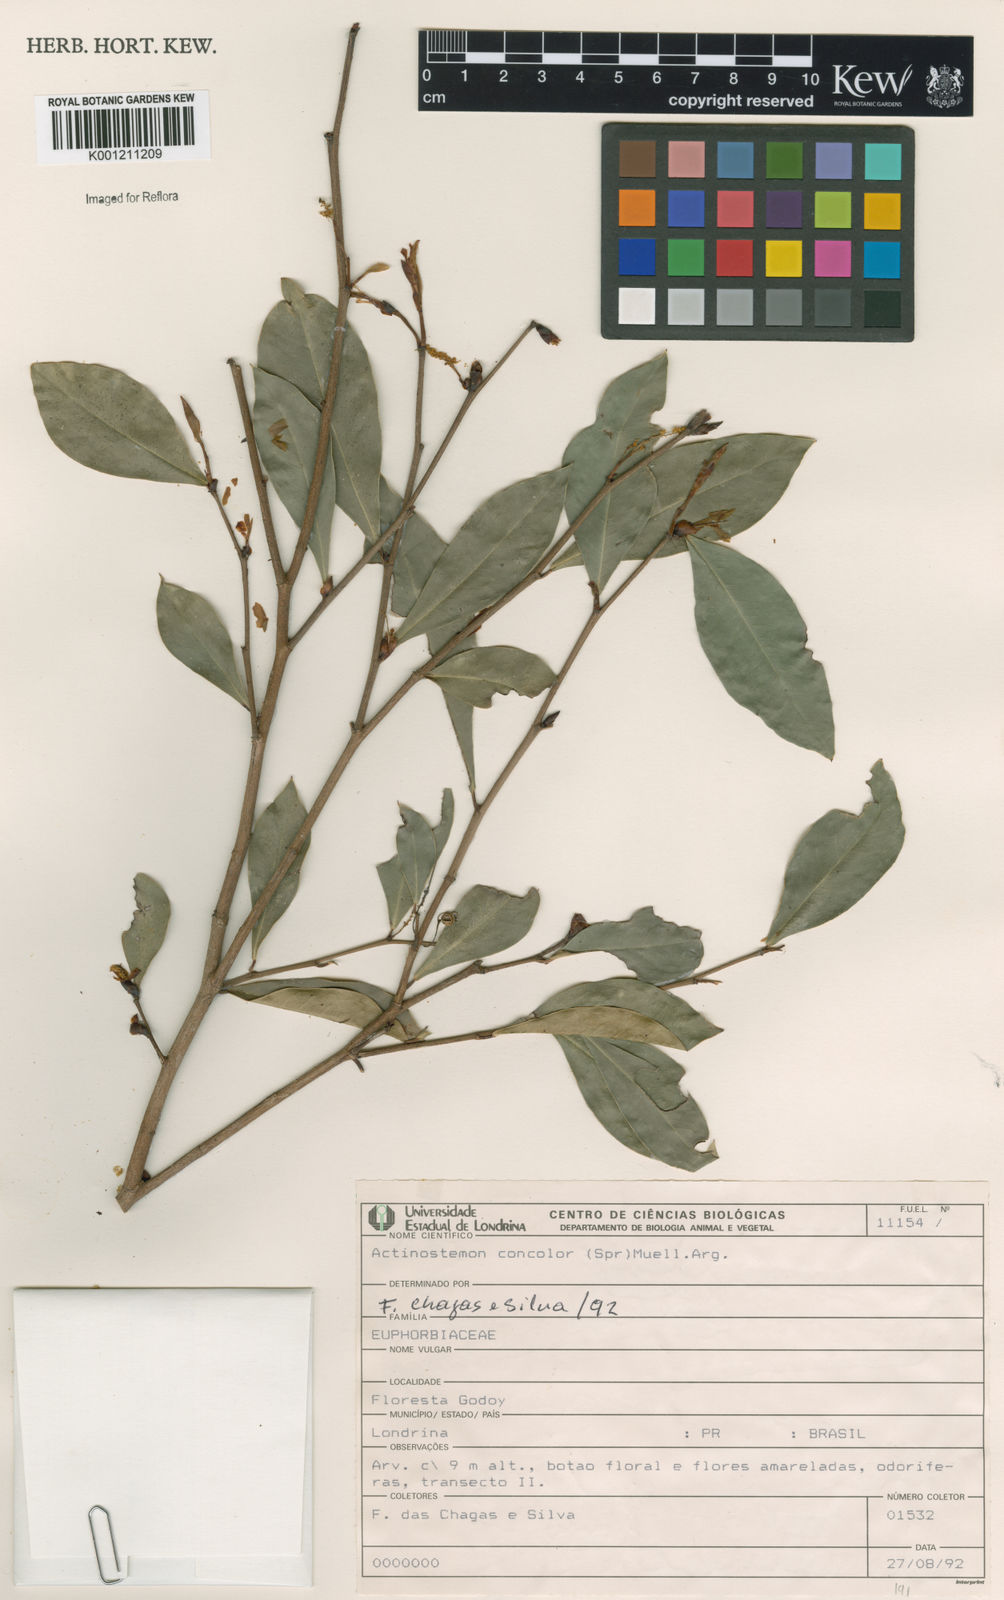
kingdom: Plantae
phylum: Tracheophyta
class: Magnoliopsida
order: Malpighiales
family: Euphorbiaceae
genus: Actinostemon
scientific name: Actinostemon
